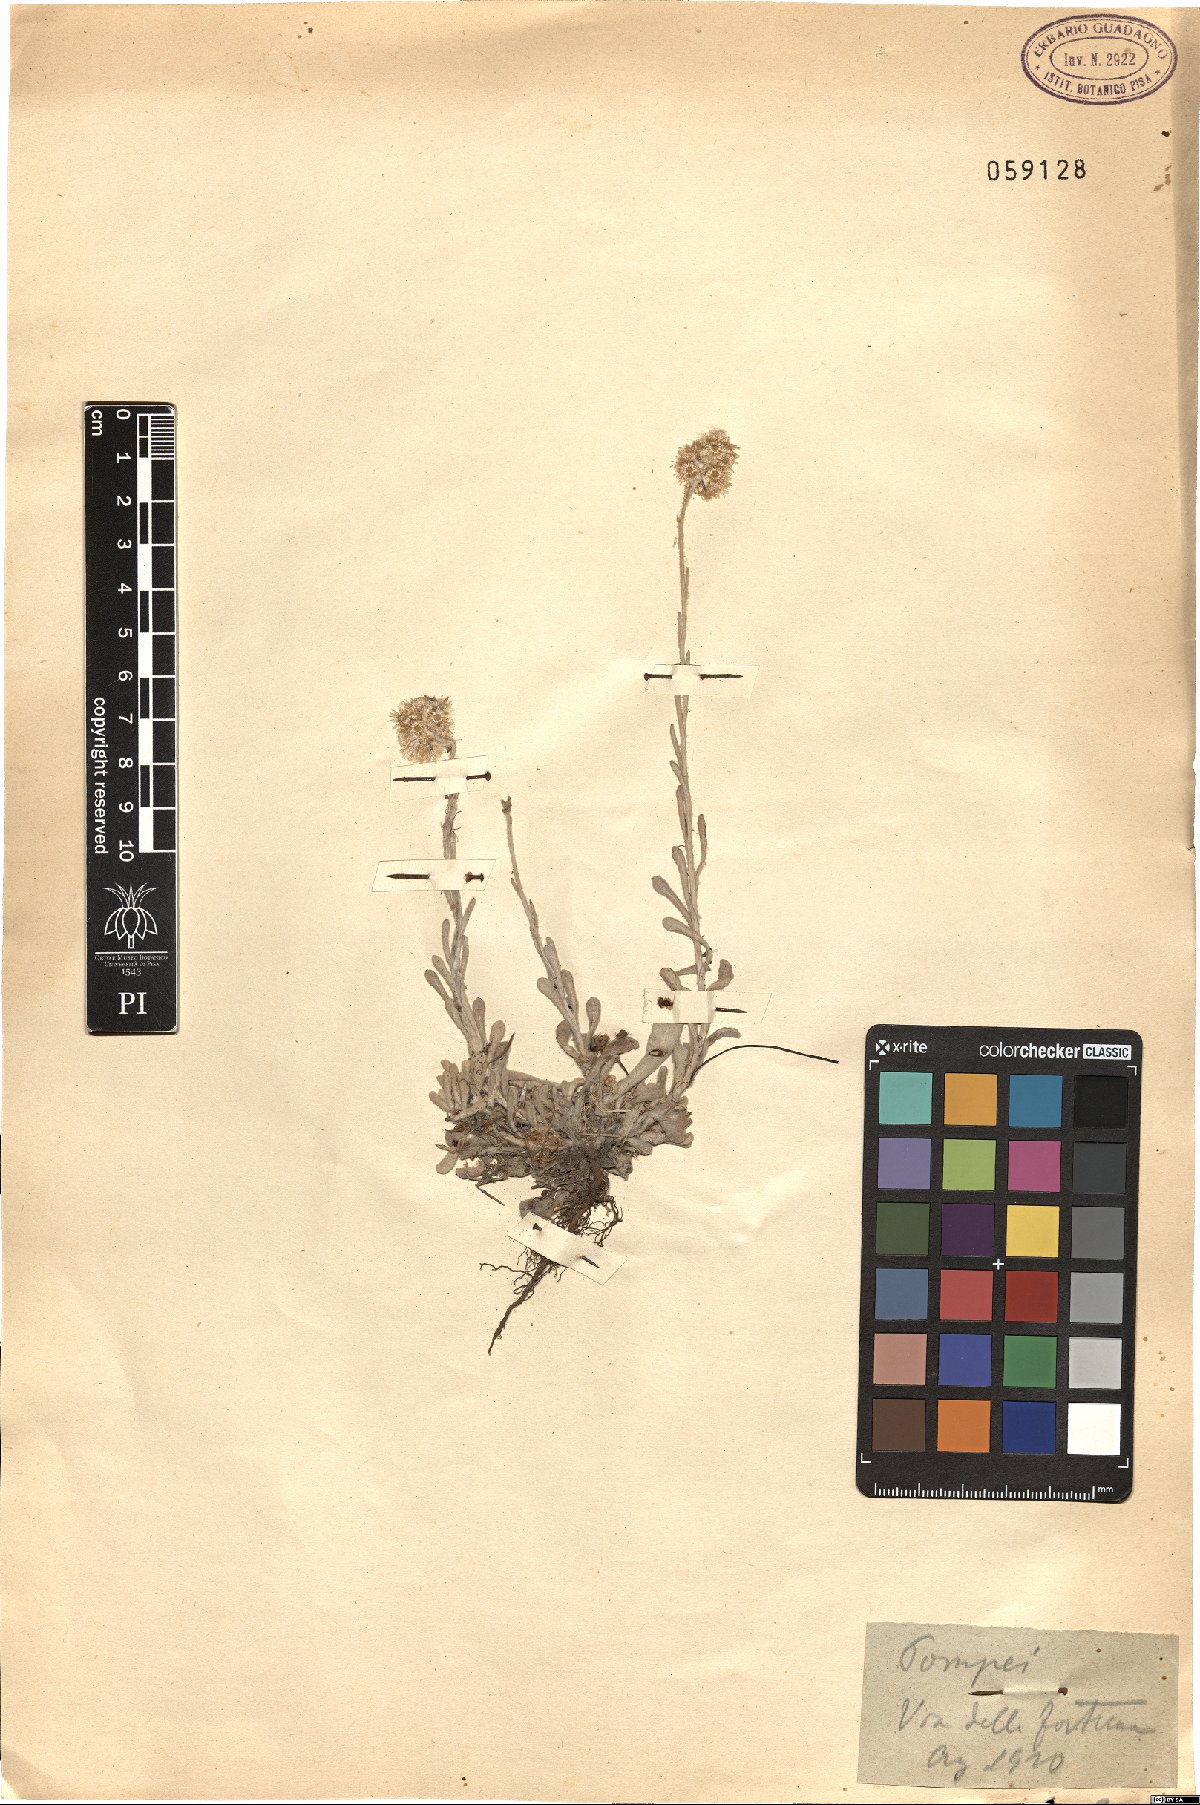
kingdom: Plantae
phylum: Tracheophyta
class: Magnoliopsida
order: Asterales
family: Asteraceae
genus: Helichrysum
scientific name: Helichrysum luteoalbum
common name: Daisy
